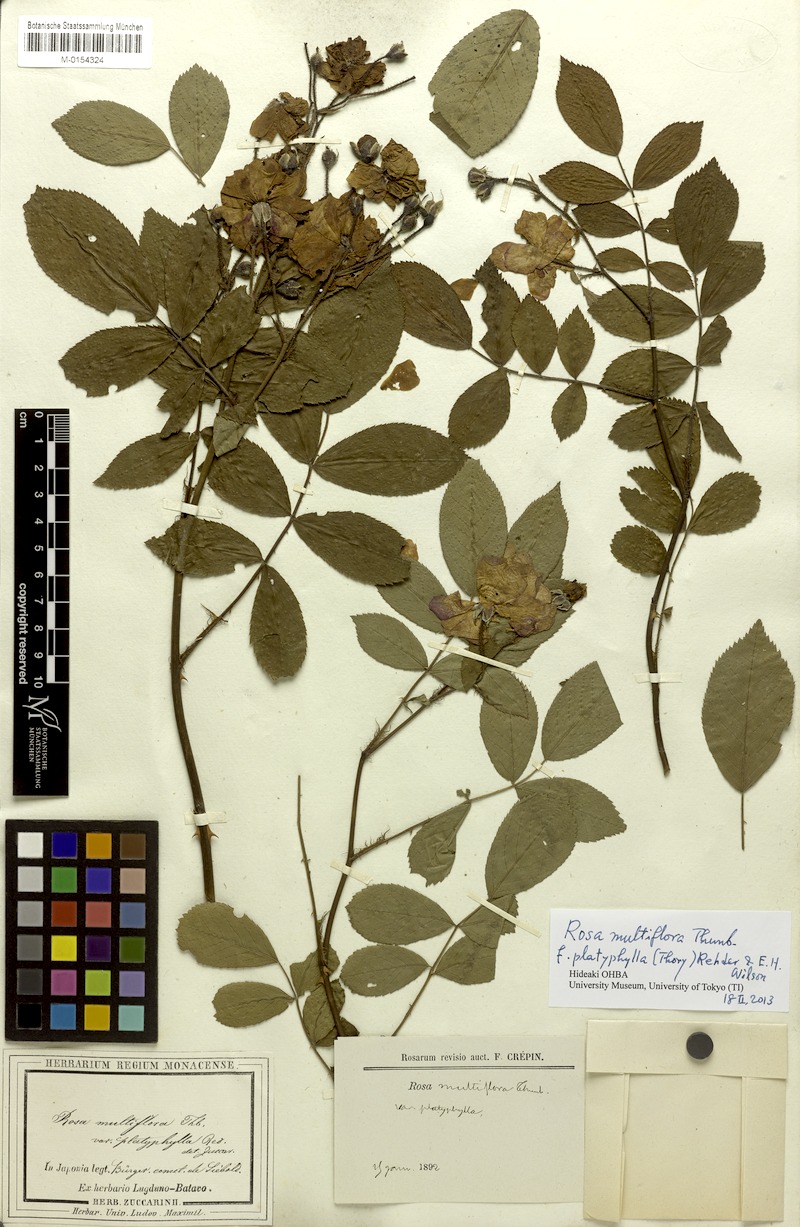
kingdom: Plantae
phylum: Tracheophyta
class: Magnoliopsida
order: Rosales
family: Rosaceae
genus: Rosa
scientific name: Rosa multiflora
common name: Multiflora rose
